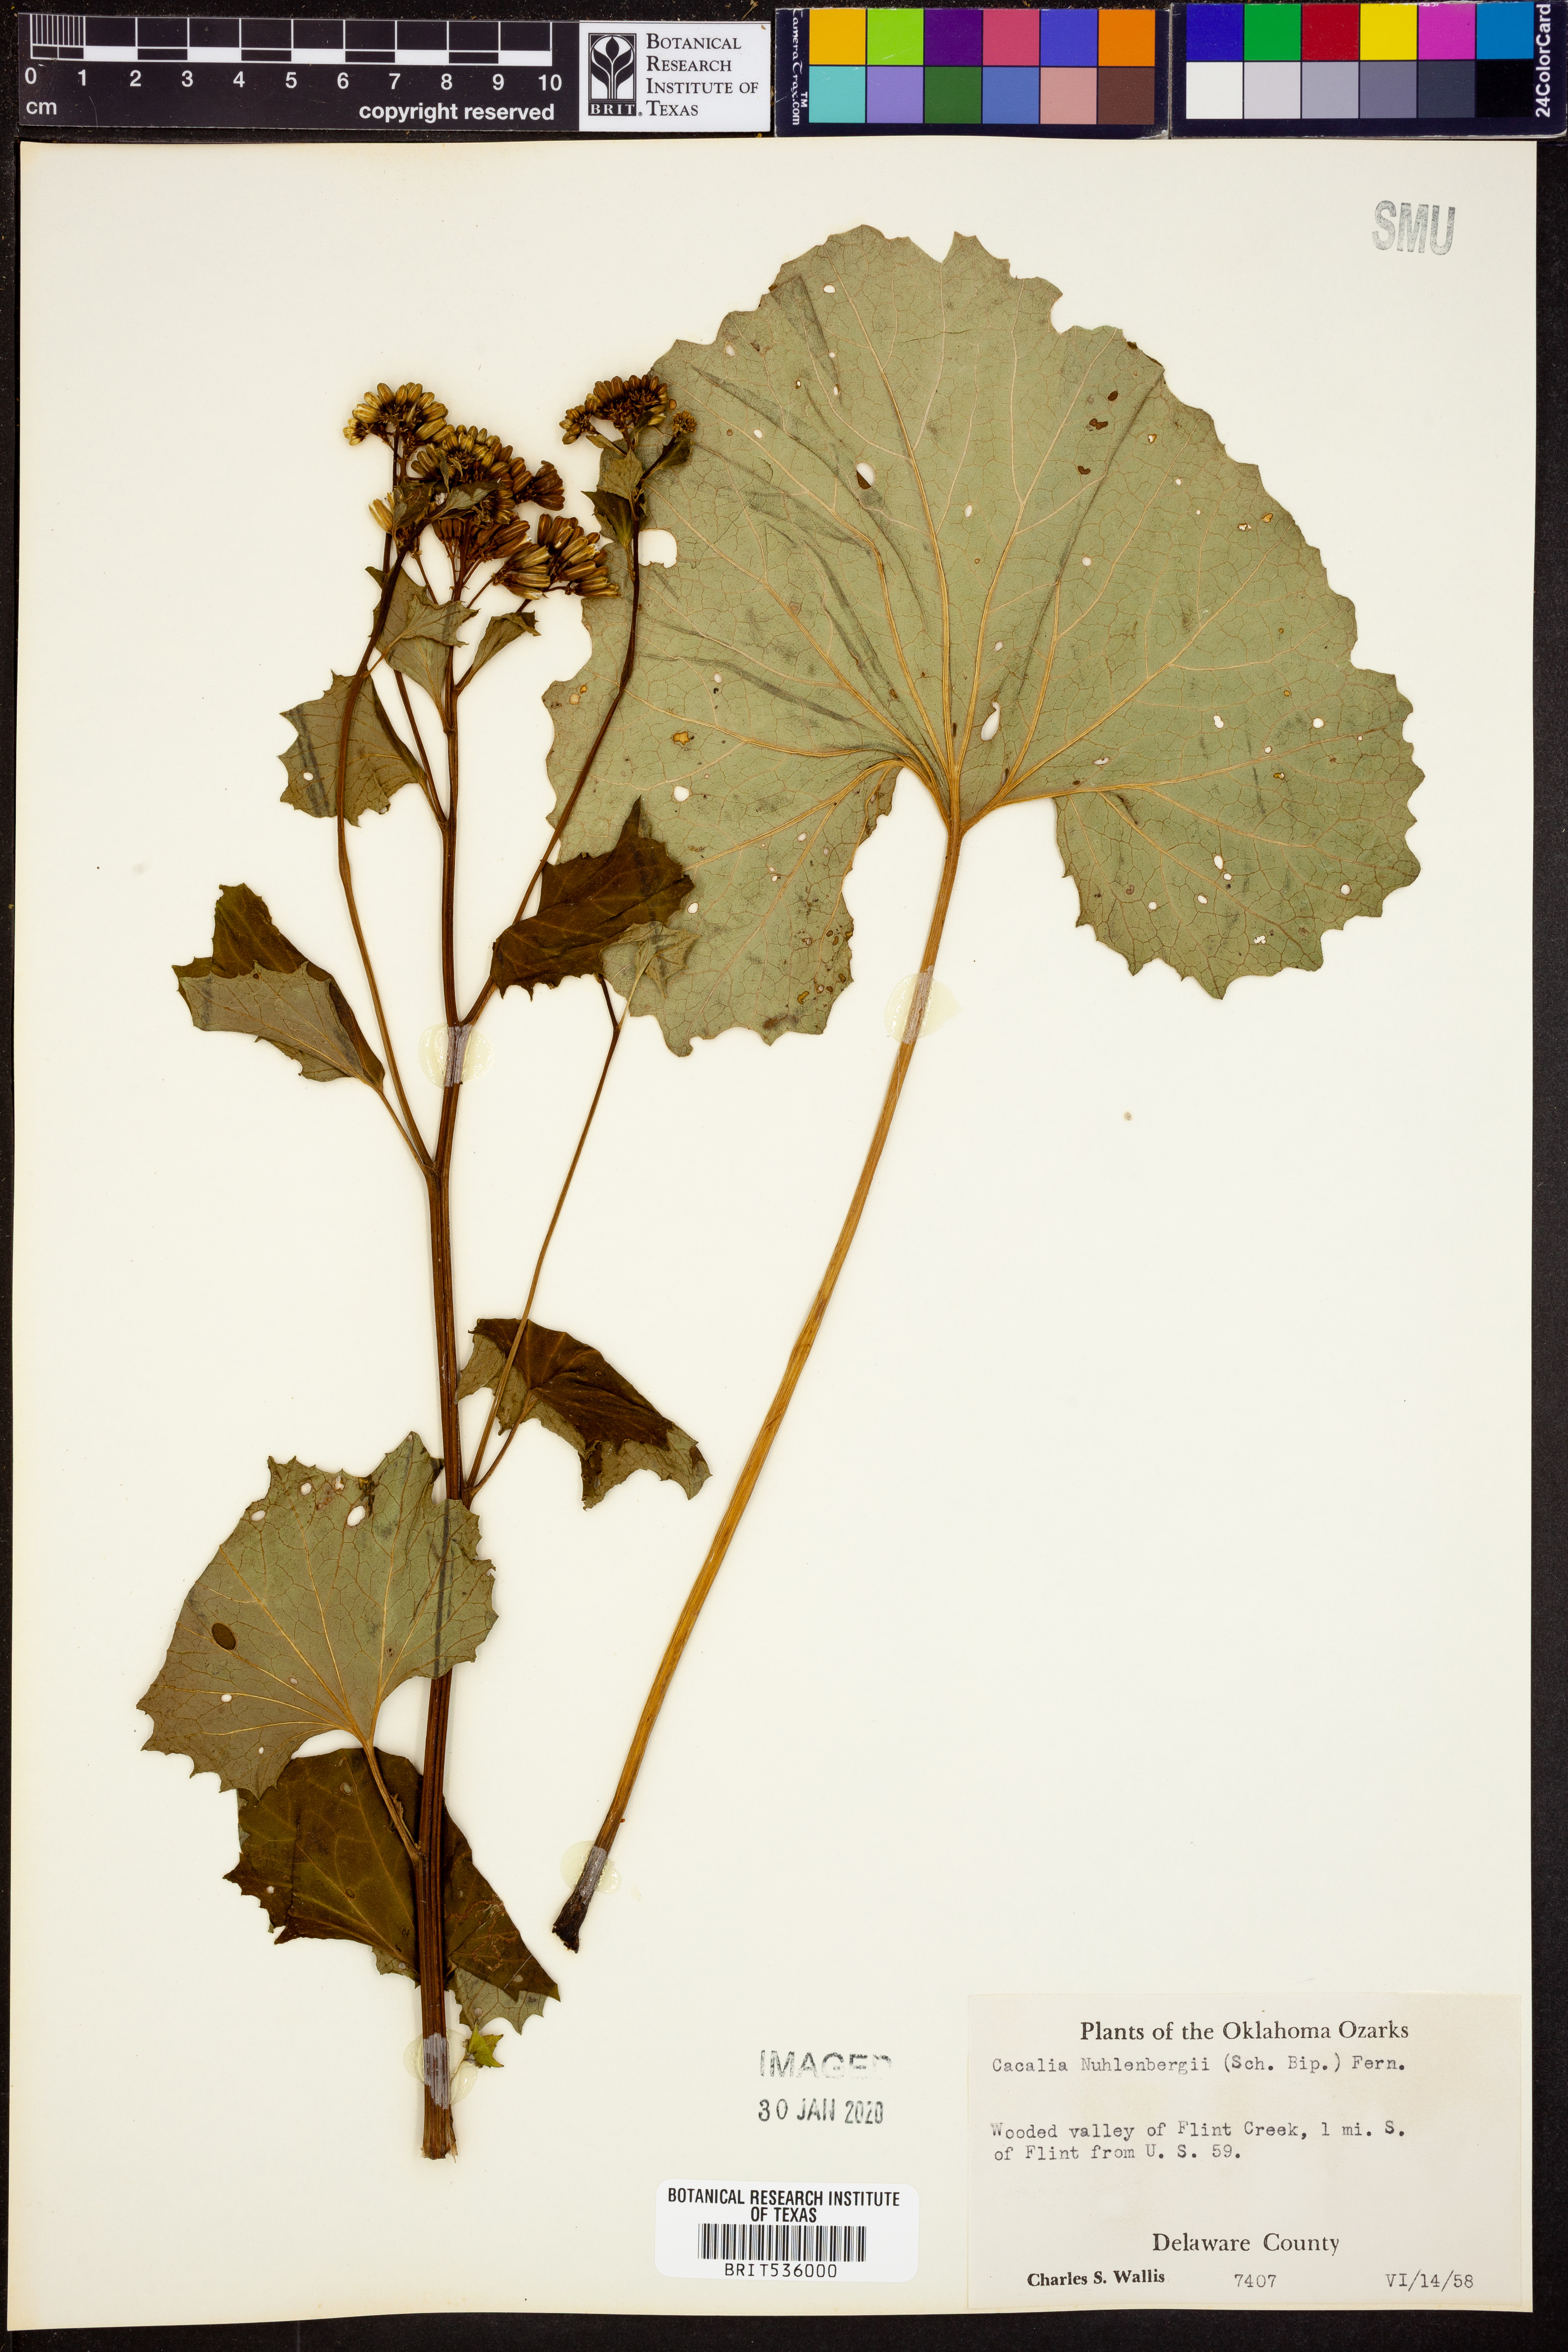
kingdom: Plantae
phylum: Tracheophyta
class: Magnoliopsida
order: Asterales
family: Asteraceae
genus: Arnoglossum
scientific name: Arnoglossum reniforme
